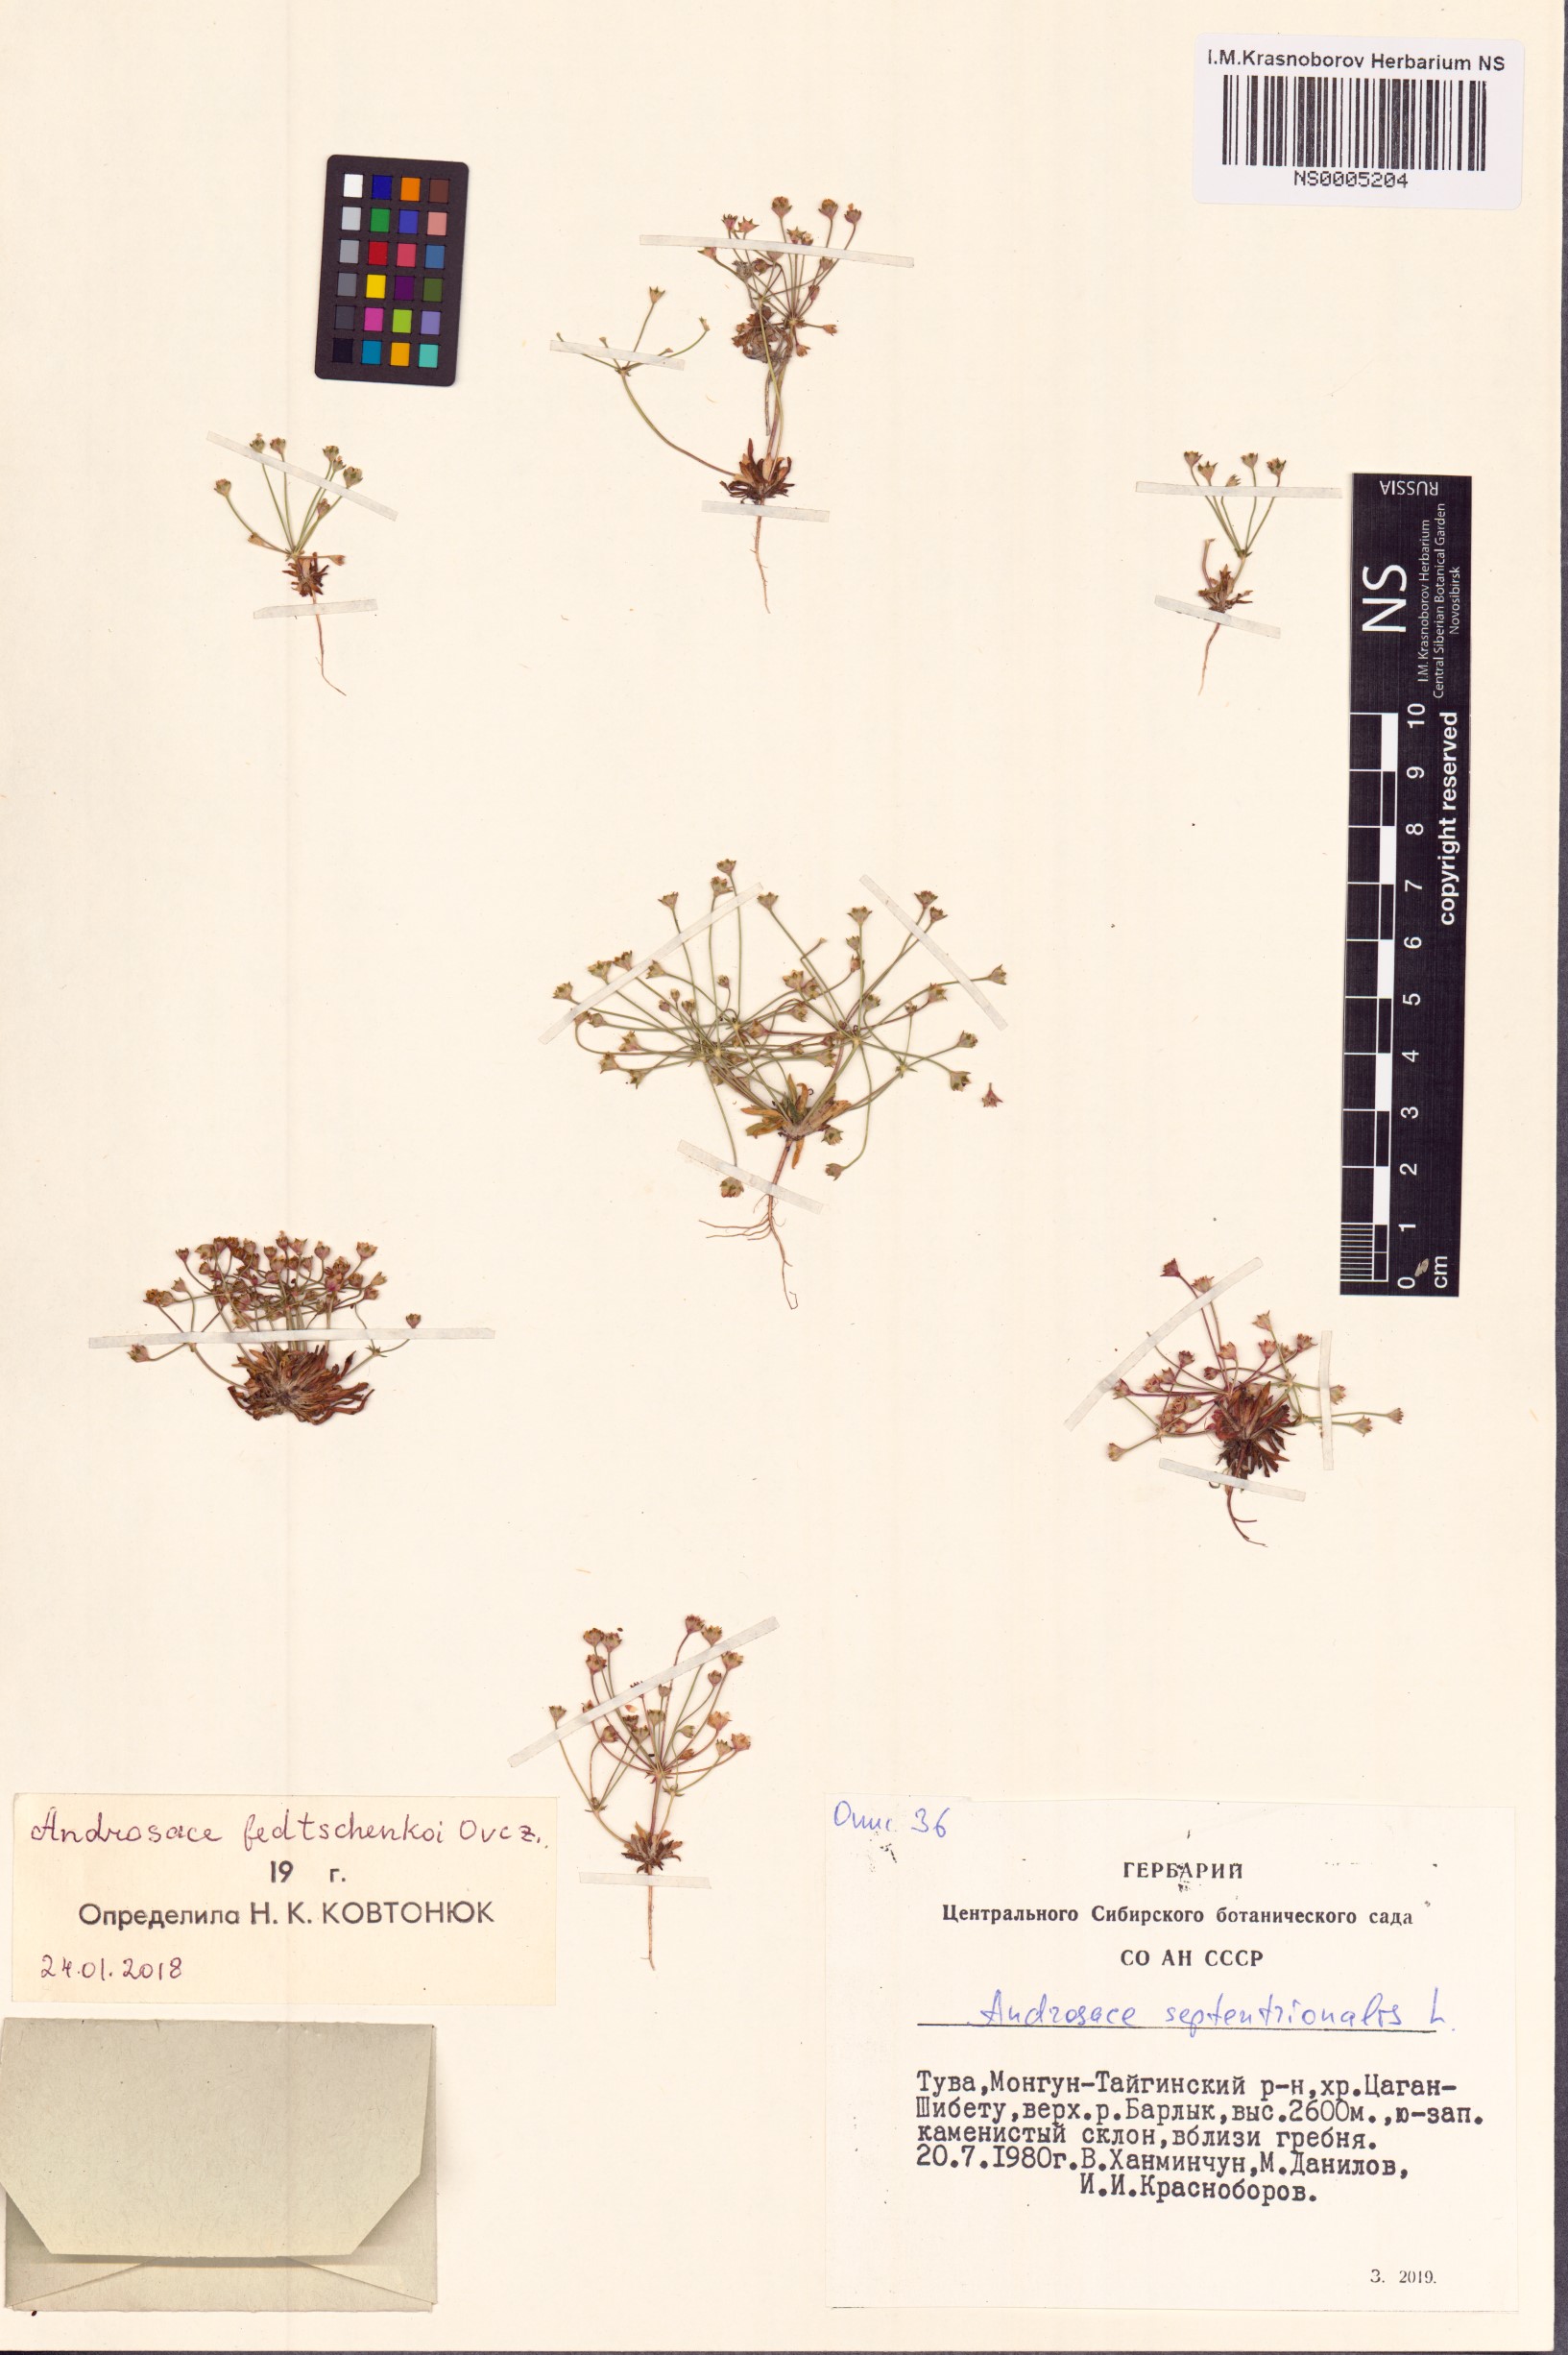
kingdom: Plantae
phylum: Tracheophyta
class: Magnoliopsida
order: Ericales
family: Primulaceae
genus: Androsace
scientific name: Androsace fedtschenkoi
